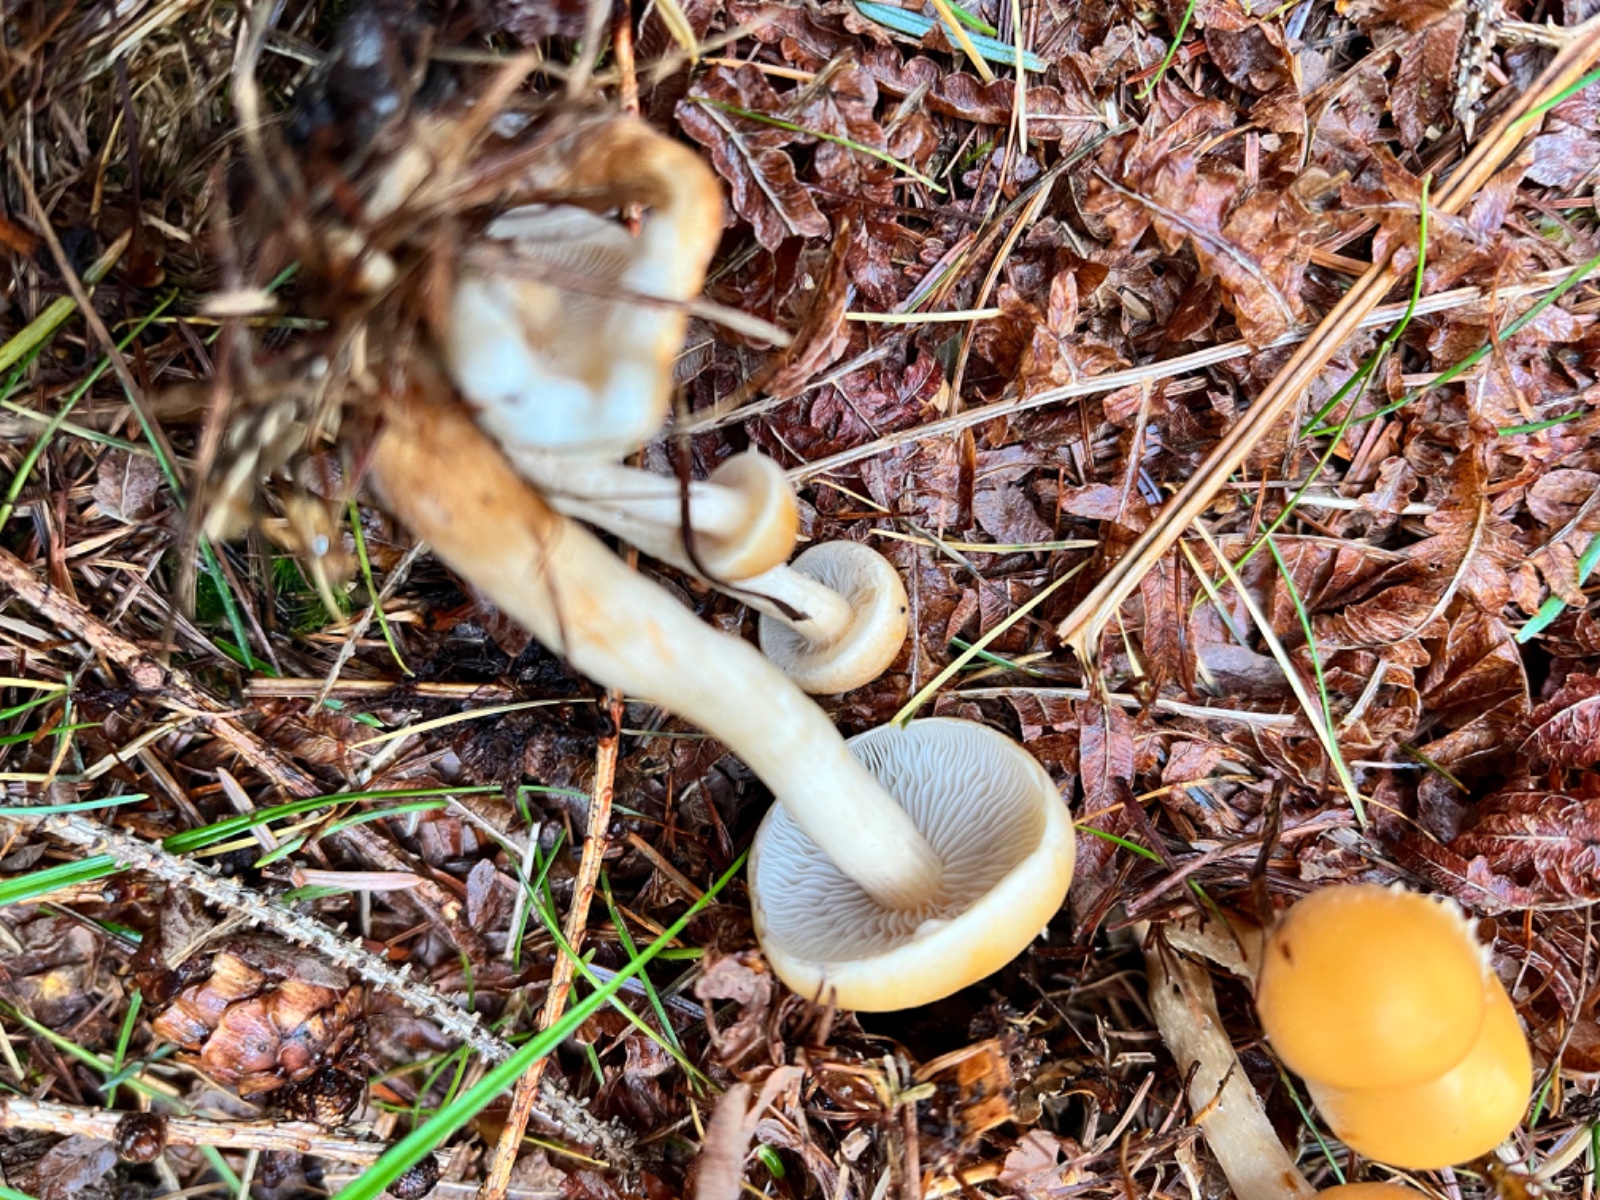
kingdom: Fungi
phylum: Basidiomycota
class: Agaricomycetes
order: Agaricales
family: Strophariaceae
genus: Hypholoma
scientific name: Hypholoma capnoides
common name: gran-svovlhat
